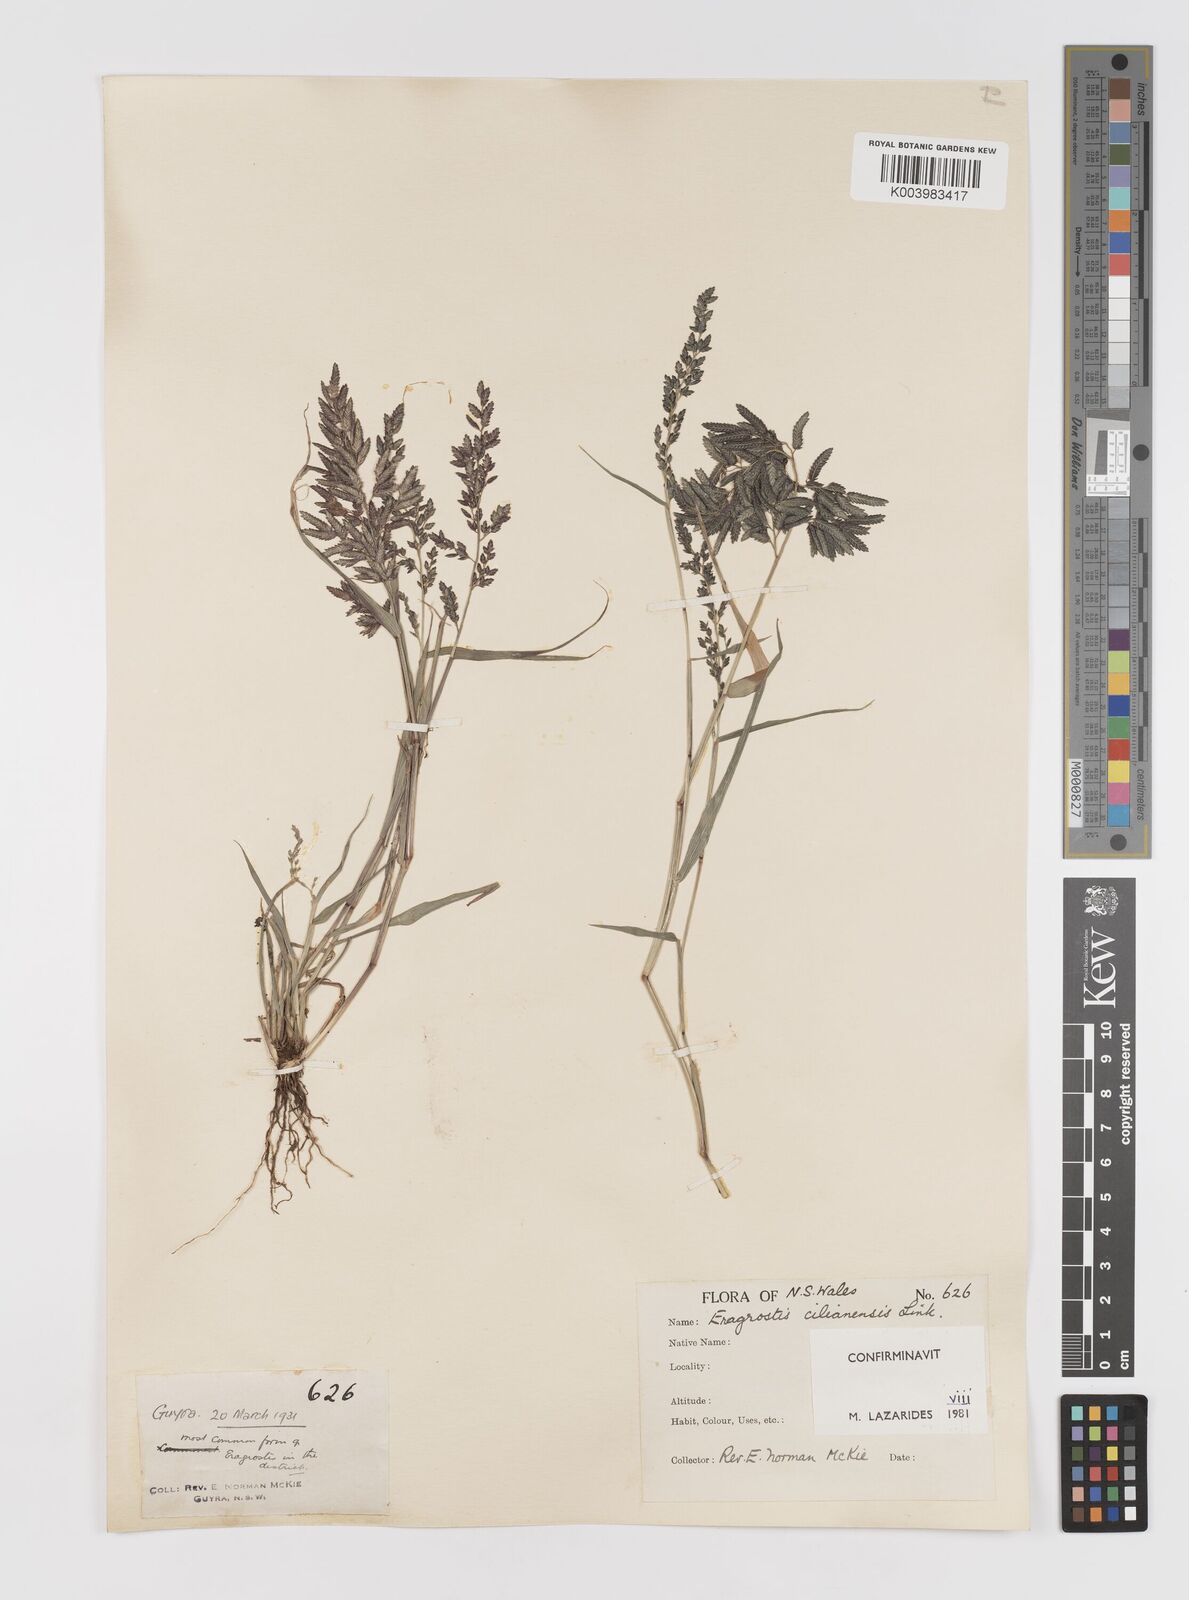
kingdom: Plantae
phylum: Tracheophyta
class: Liliopsida
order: Poales
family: Poaceae
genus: Eragrostis
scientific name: Eragrostis cilianensis
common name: Stinkgrass
